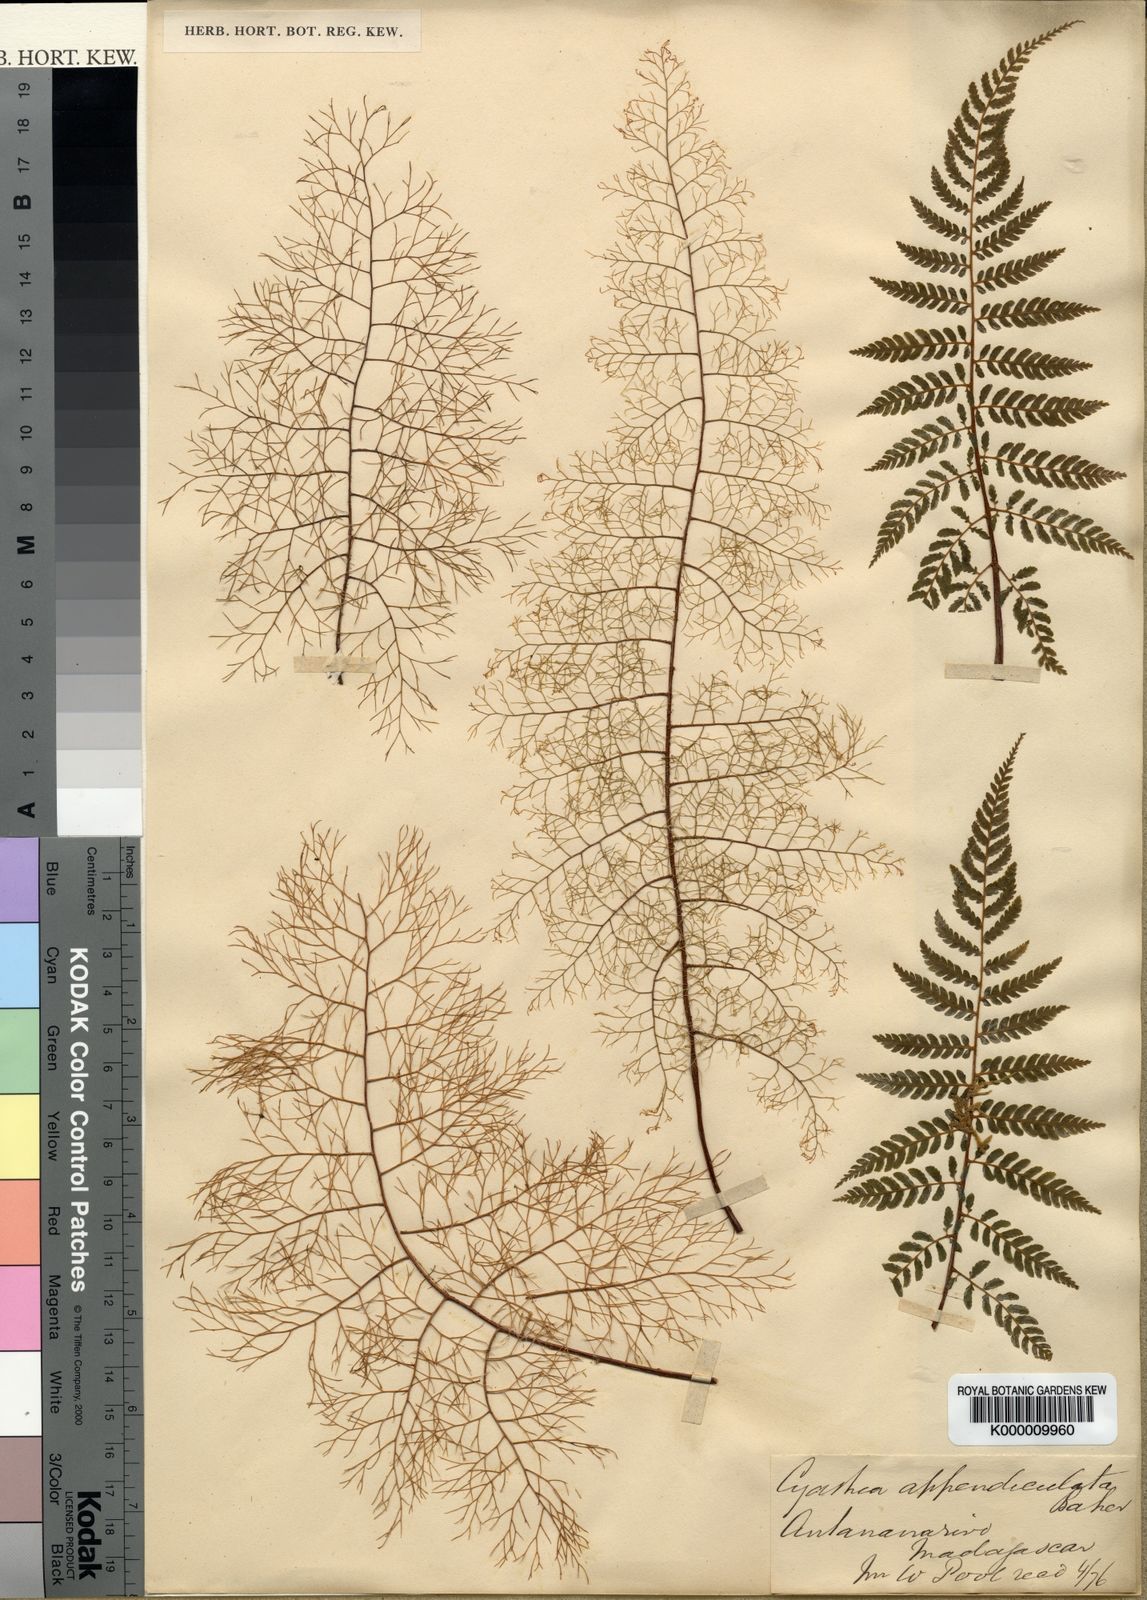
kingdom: Plantae
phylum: Tracheophyta
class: Polypodiopsida
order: Cyatheales
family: Cyatheaceae
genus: Alsophila
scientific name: Alsophila appendiculata
